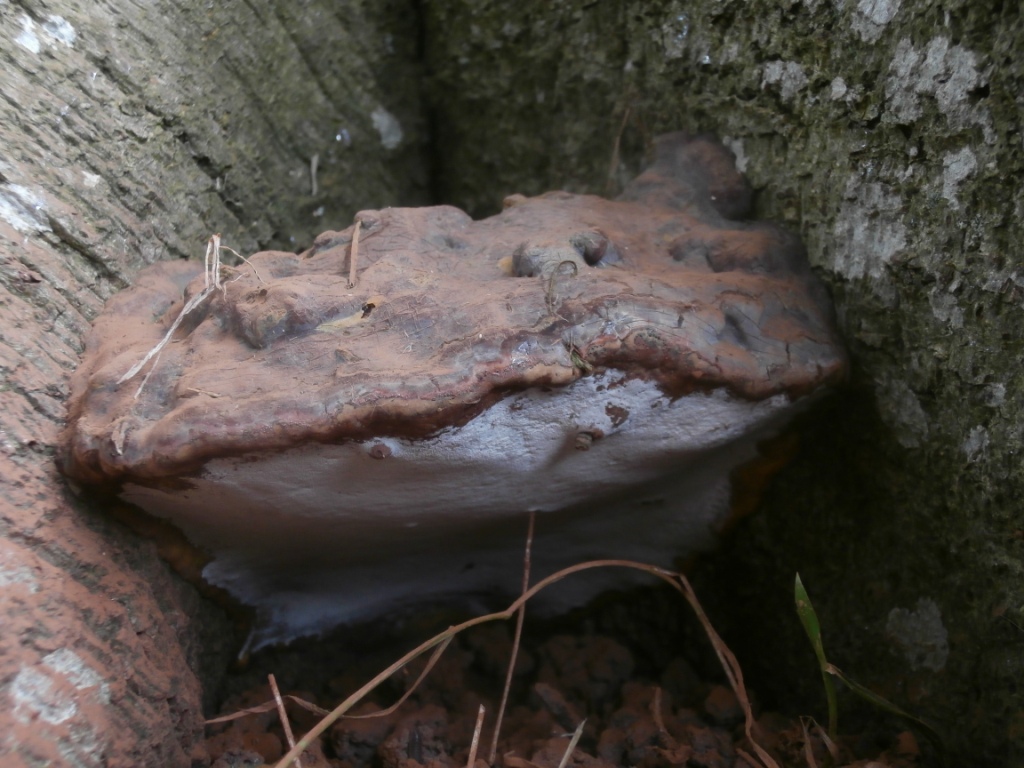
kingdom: Fungi
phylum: Basidiomycota
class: Agaricomycetes
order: Polyporales
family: Polyporaceae
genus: Ganoderma
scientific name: Ganoderma pfeifferi
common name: kobberrød lakporesvamp
